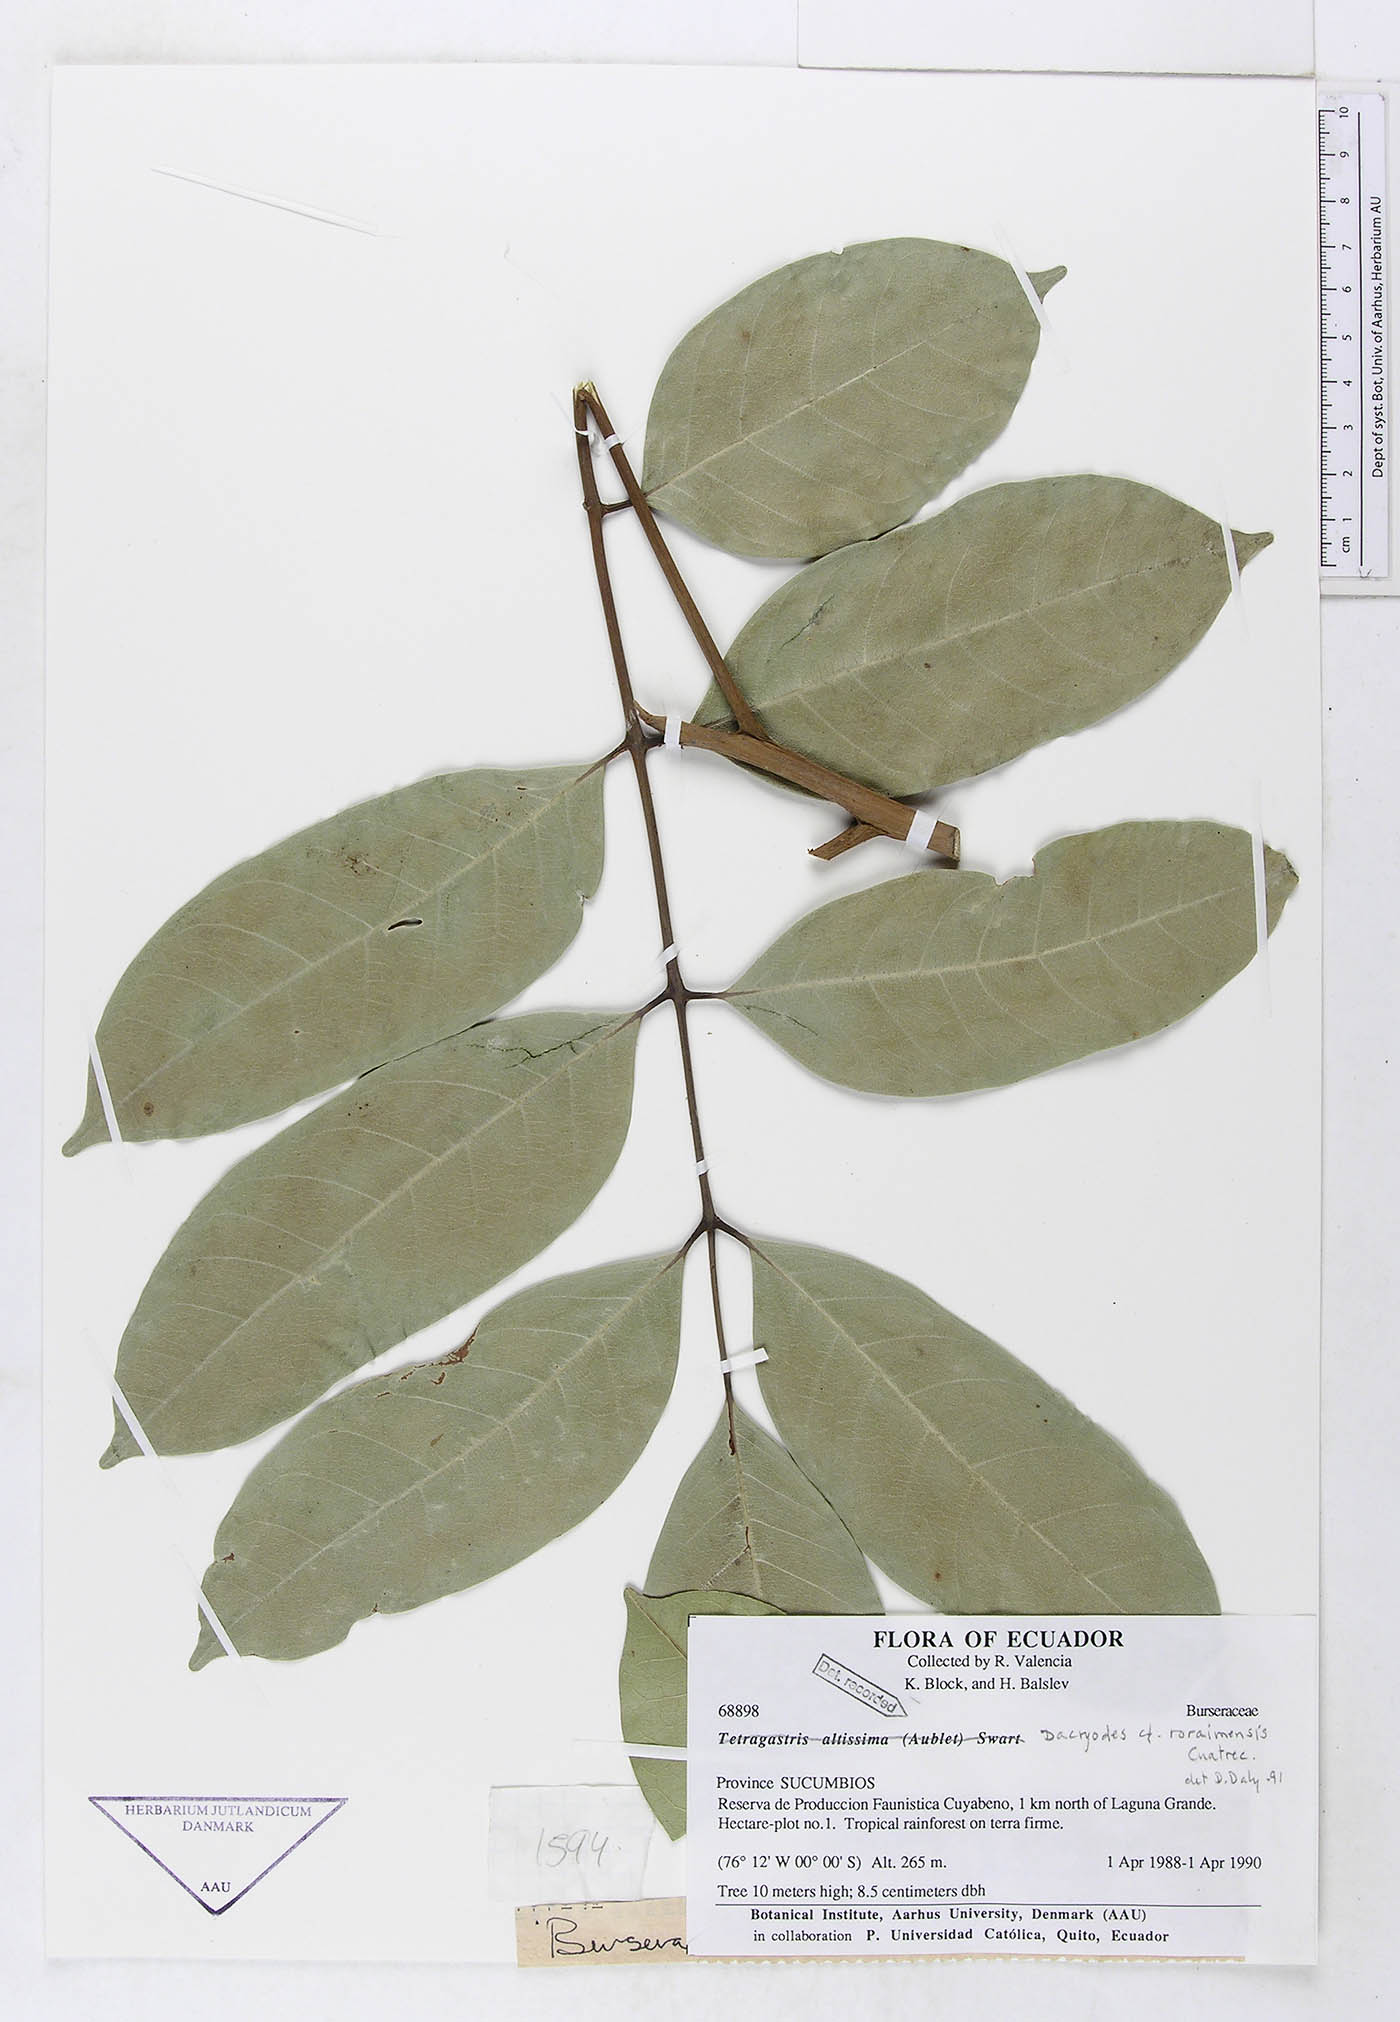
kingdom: Plantae
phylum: Tracheophyta
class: Magnoliopsida
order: Sapindales
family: Burseraceae
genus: Dacryodes
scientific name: Dacryodes roraimensis
